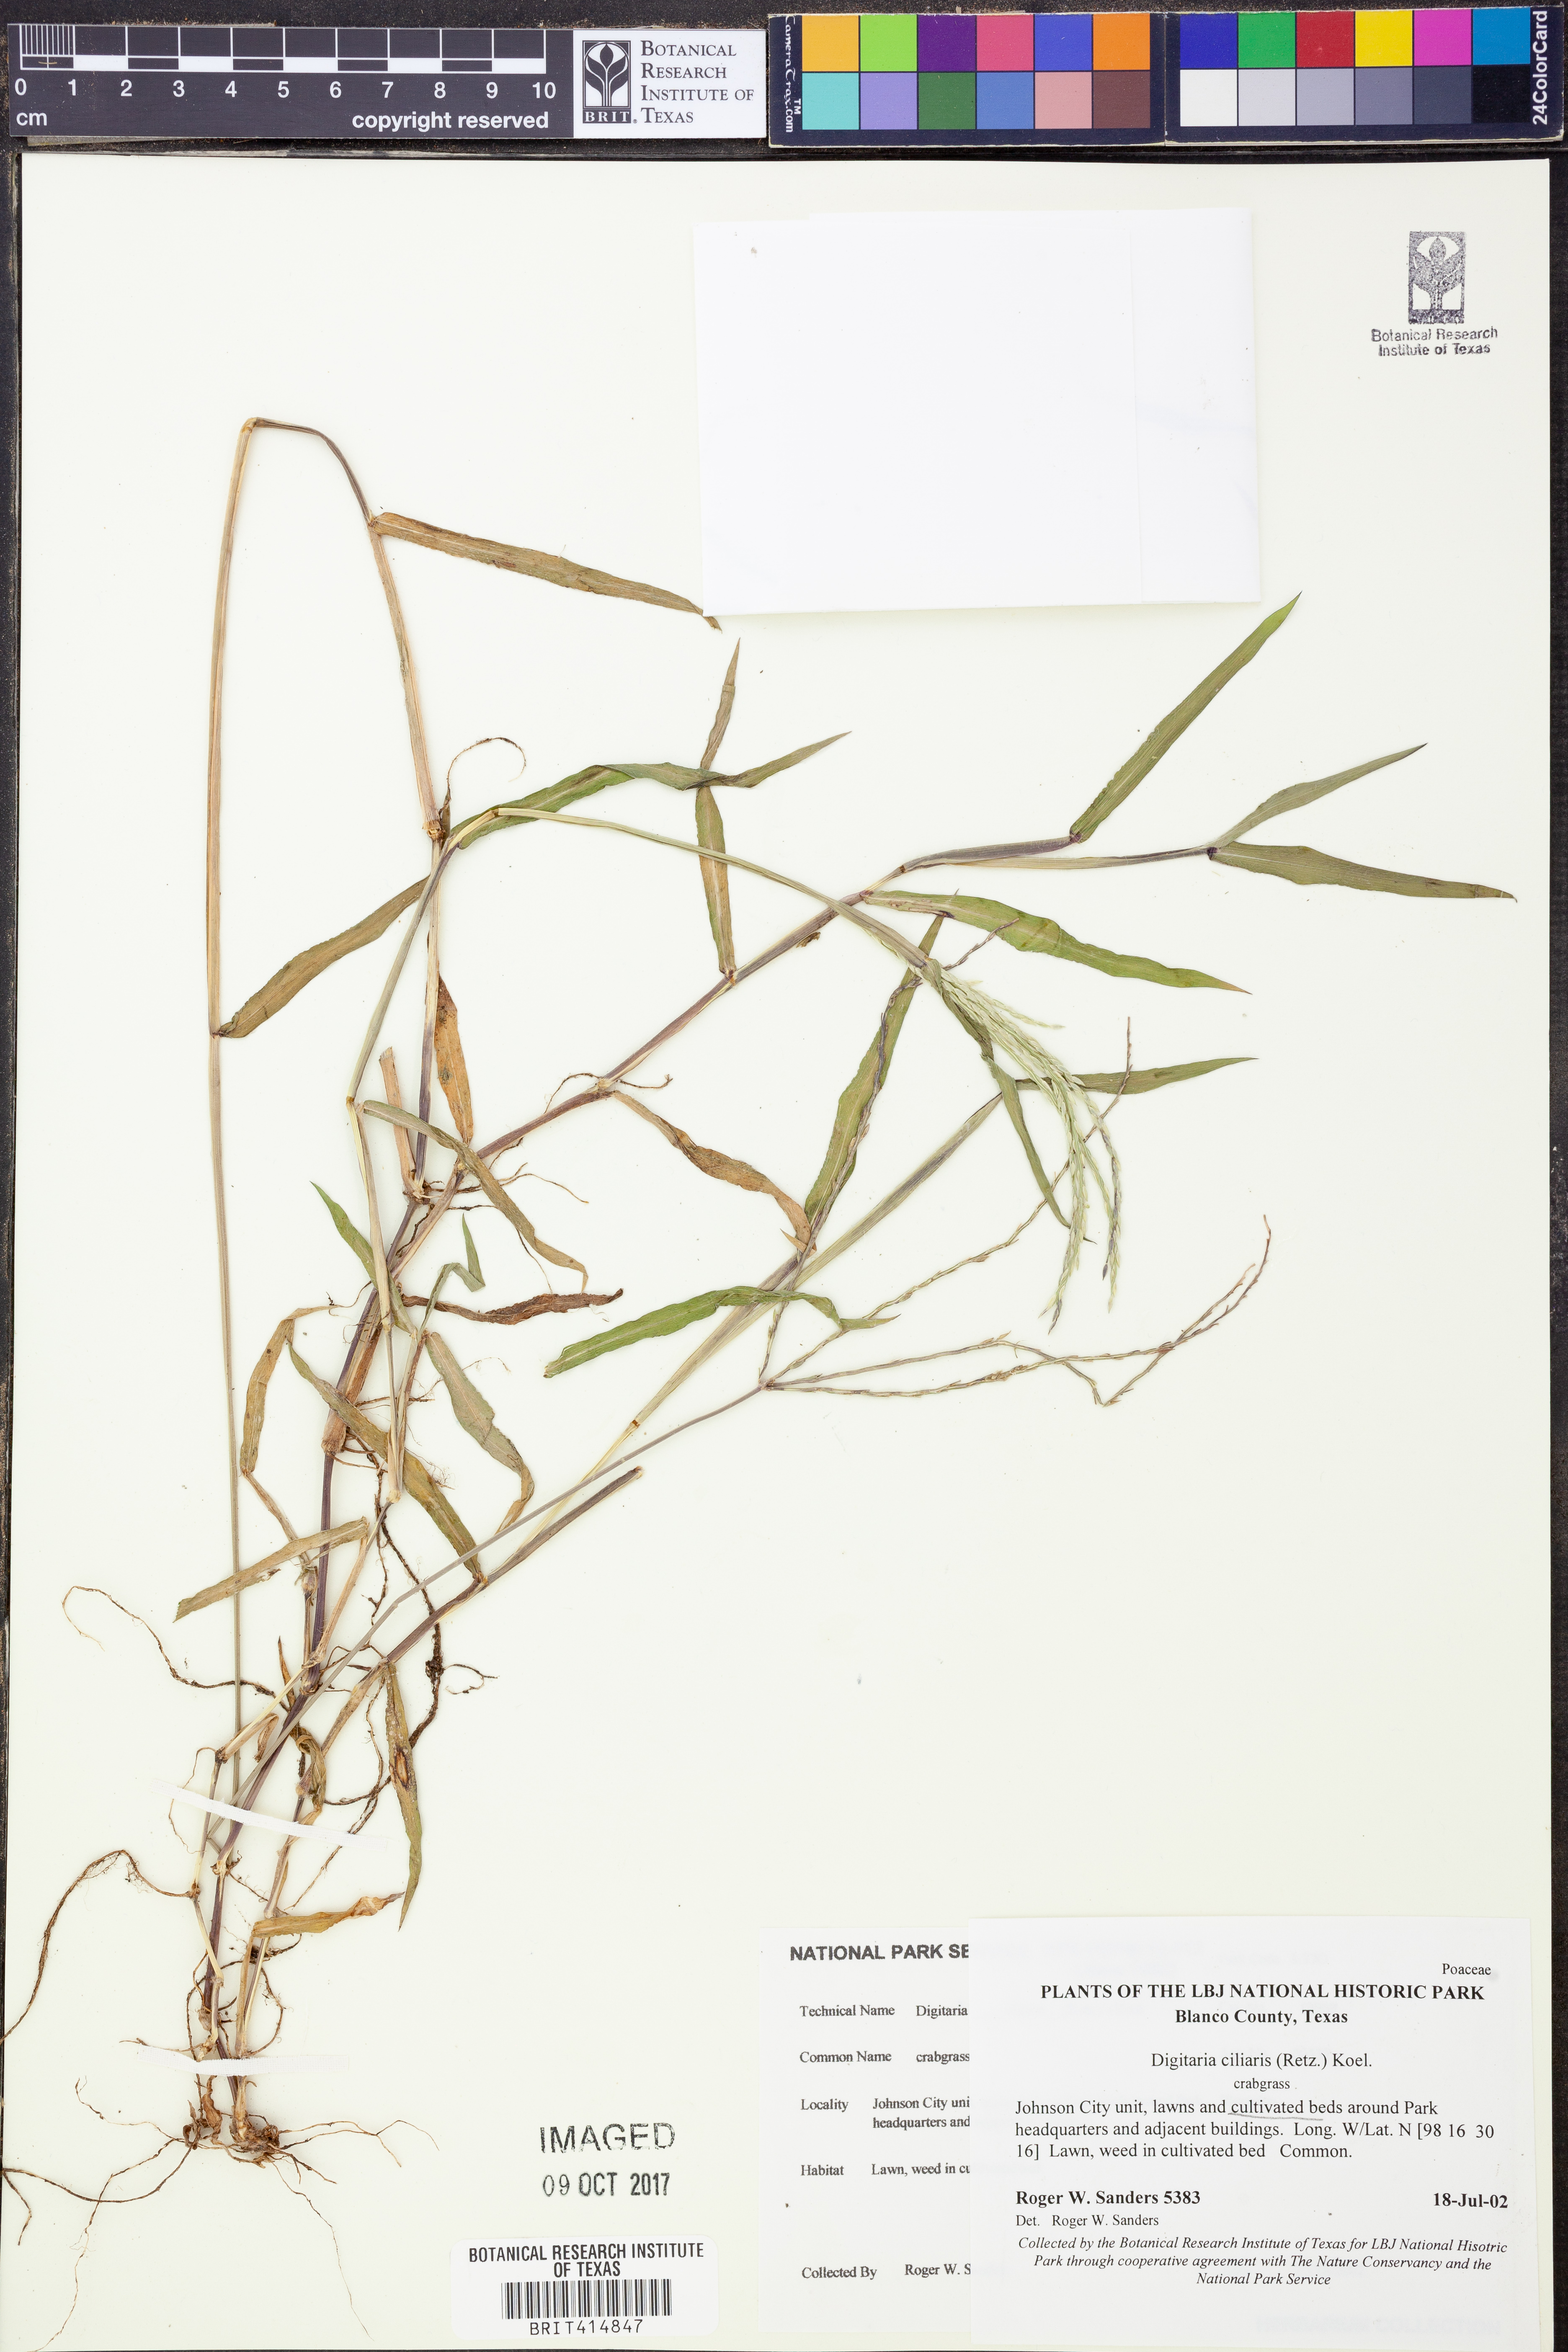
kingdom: Plantae
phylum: Tracheophyta
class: Liliopsida
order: Poales
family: Poaceae
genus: Digitaria
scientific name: Digitaria ciliaris
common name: Tropical finger-grass
